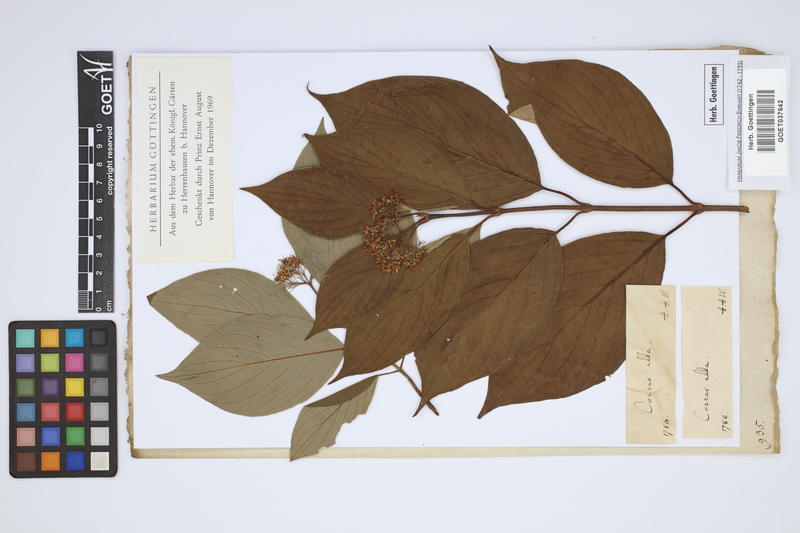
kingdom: Plantae
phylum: Tracheophyta
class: Magnoliopsida
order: Cornales
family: Cornaceae
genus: Cornus
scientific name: Cornus alba
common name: White dogwood
